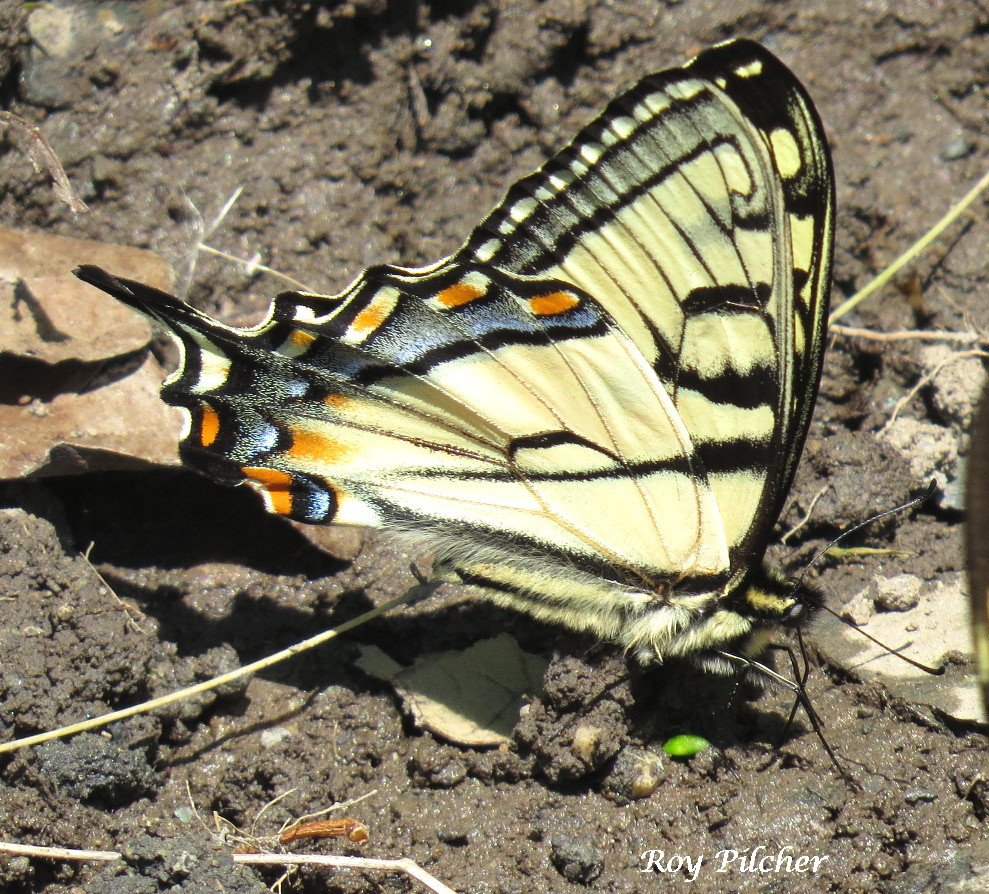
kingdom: Animalia
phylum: Arthropoda
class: Insecta
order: Lepidoptera
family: Papilionidae
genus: Pterourus
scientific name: Pterourus canadensis
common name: Canadian Tiger Swallowtail
